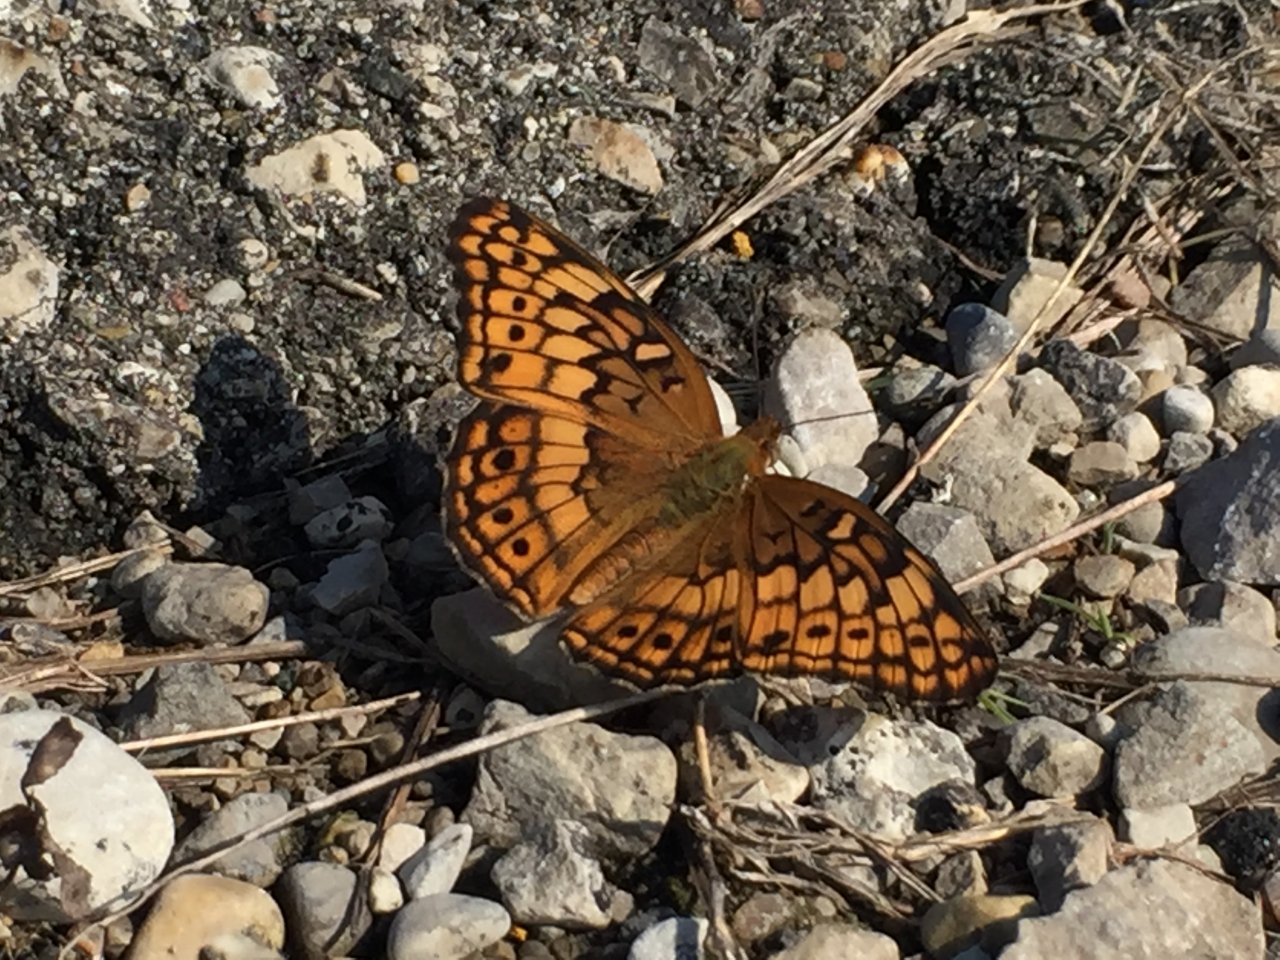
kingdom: Animalia
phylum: Arthropoda
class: Insecta
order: Lepidoptera
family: Nymphalidae
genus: Euptoieta
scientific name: Euptoieta claudia
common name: Variegated Fritillary
